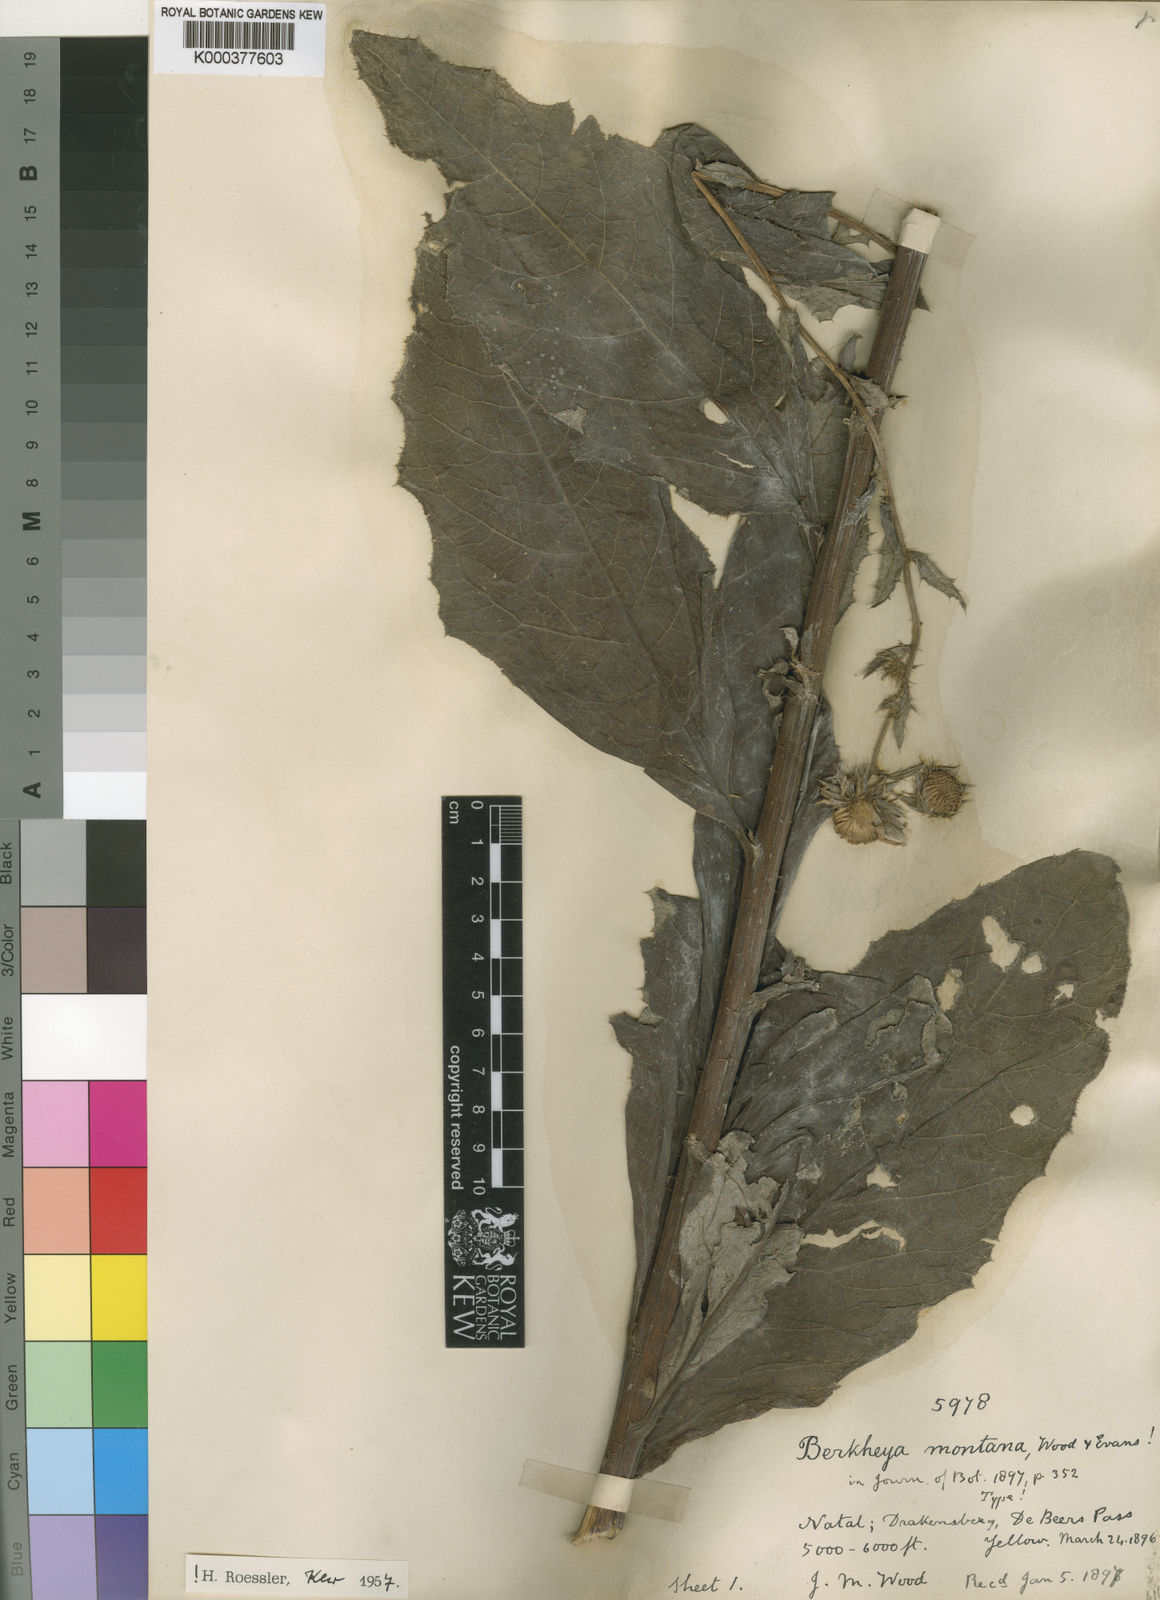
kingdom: Plantae
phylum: Tracheophyta
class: Magnoliopsida
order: Asterales
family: Asteraceae
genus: Berkheya
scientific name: Berkheya montana
